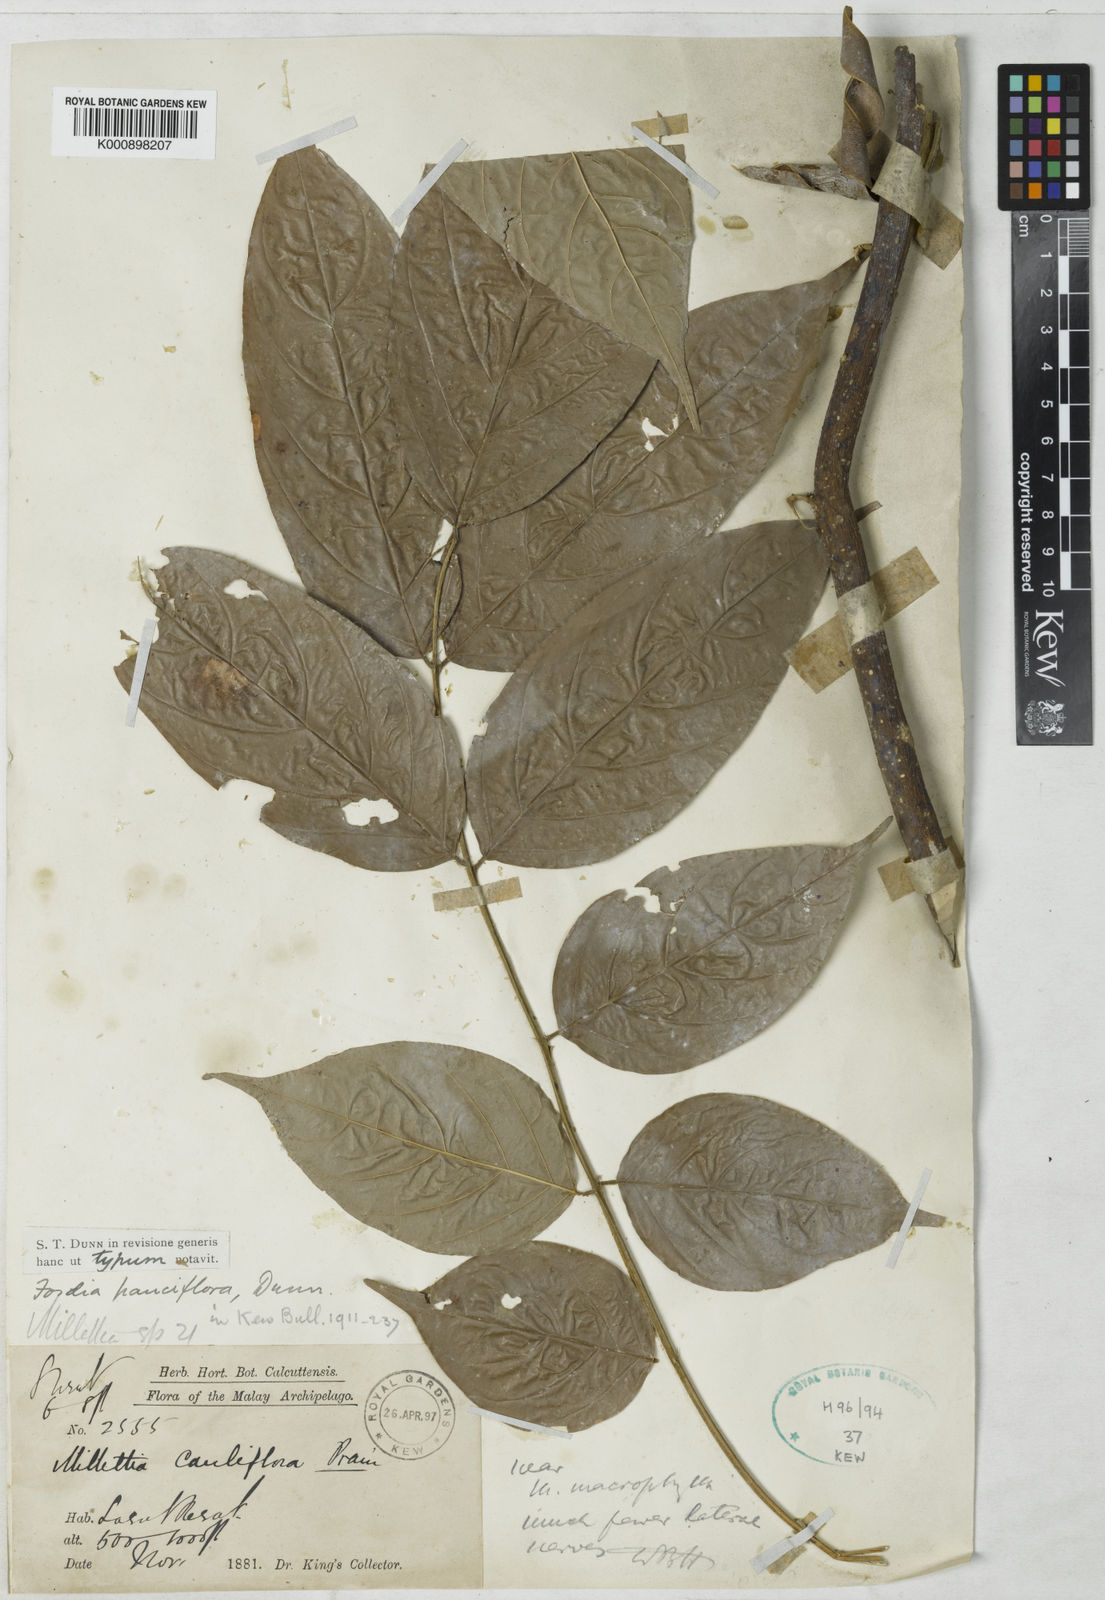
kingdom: Plantae
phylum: Tracheophyta
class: Magnoliopsida
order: Fabales
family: Fabaceae
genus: Fordia
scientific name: Fordia pauciflora
